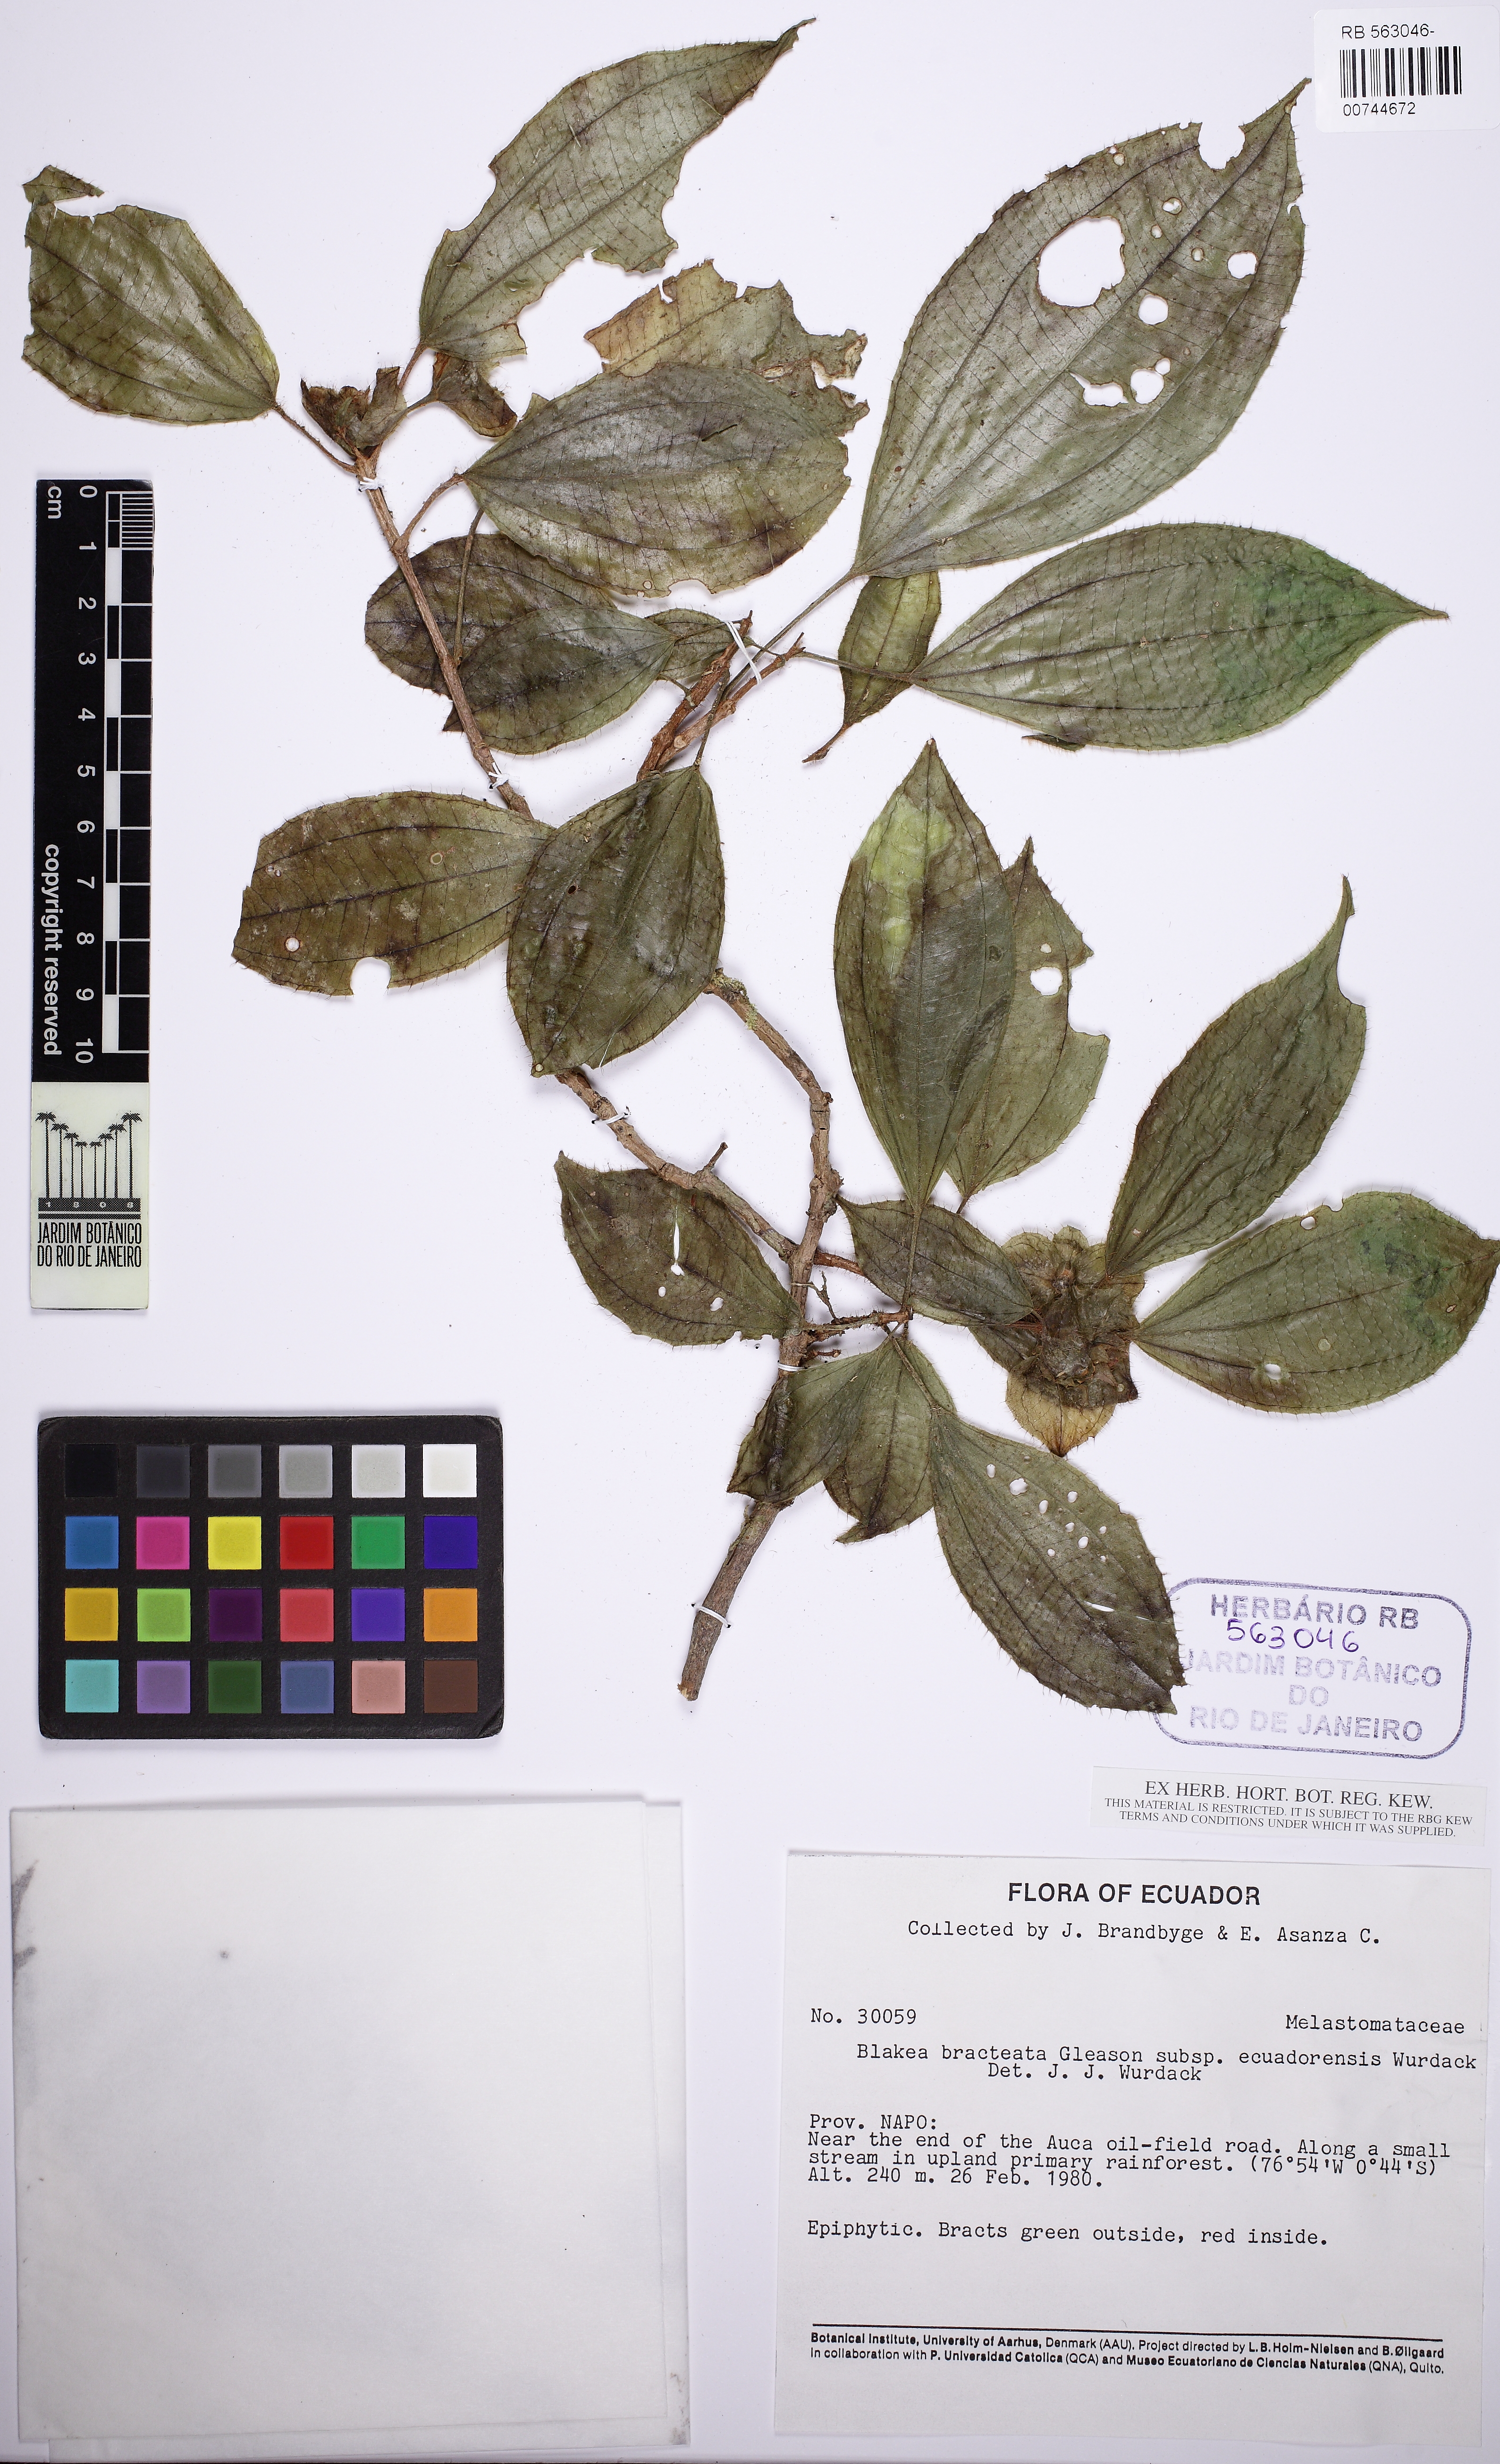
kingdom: Plantae
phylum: Tracheophyta
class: Magnoliopsida
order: Myrtales
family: Melastomataceae
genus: Blakea
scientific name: Blakea bracteata
